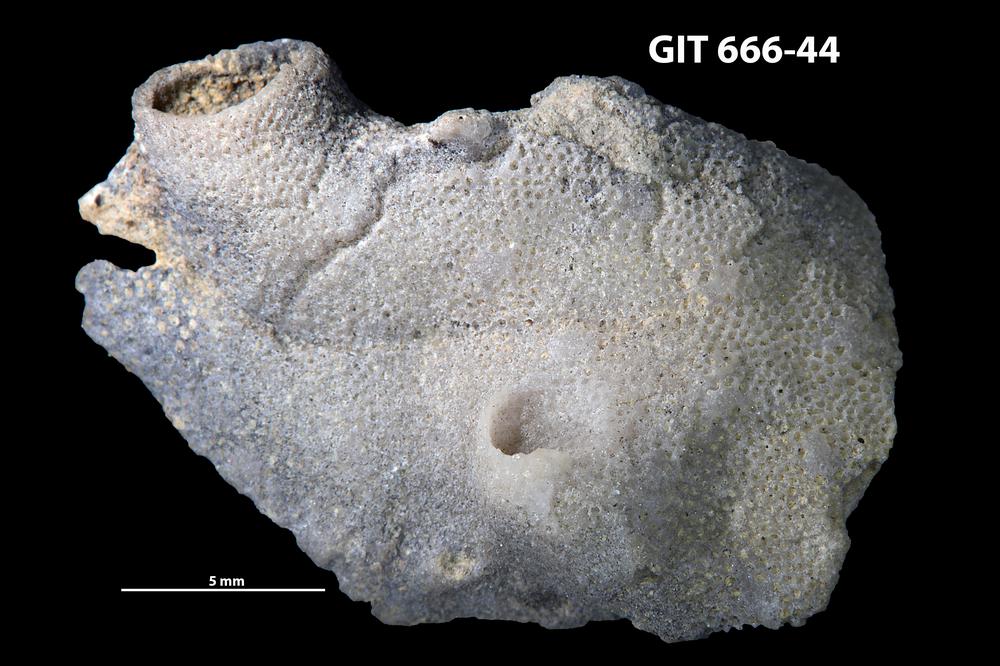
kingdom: Animalia
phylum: Bryozoa
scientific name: Bryozoa
